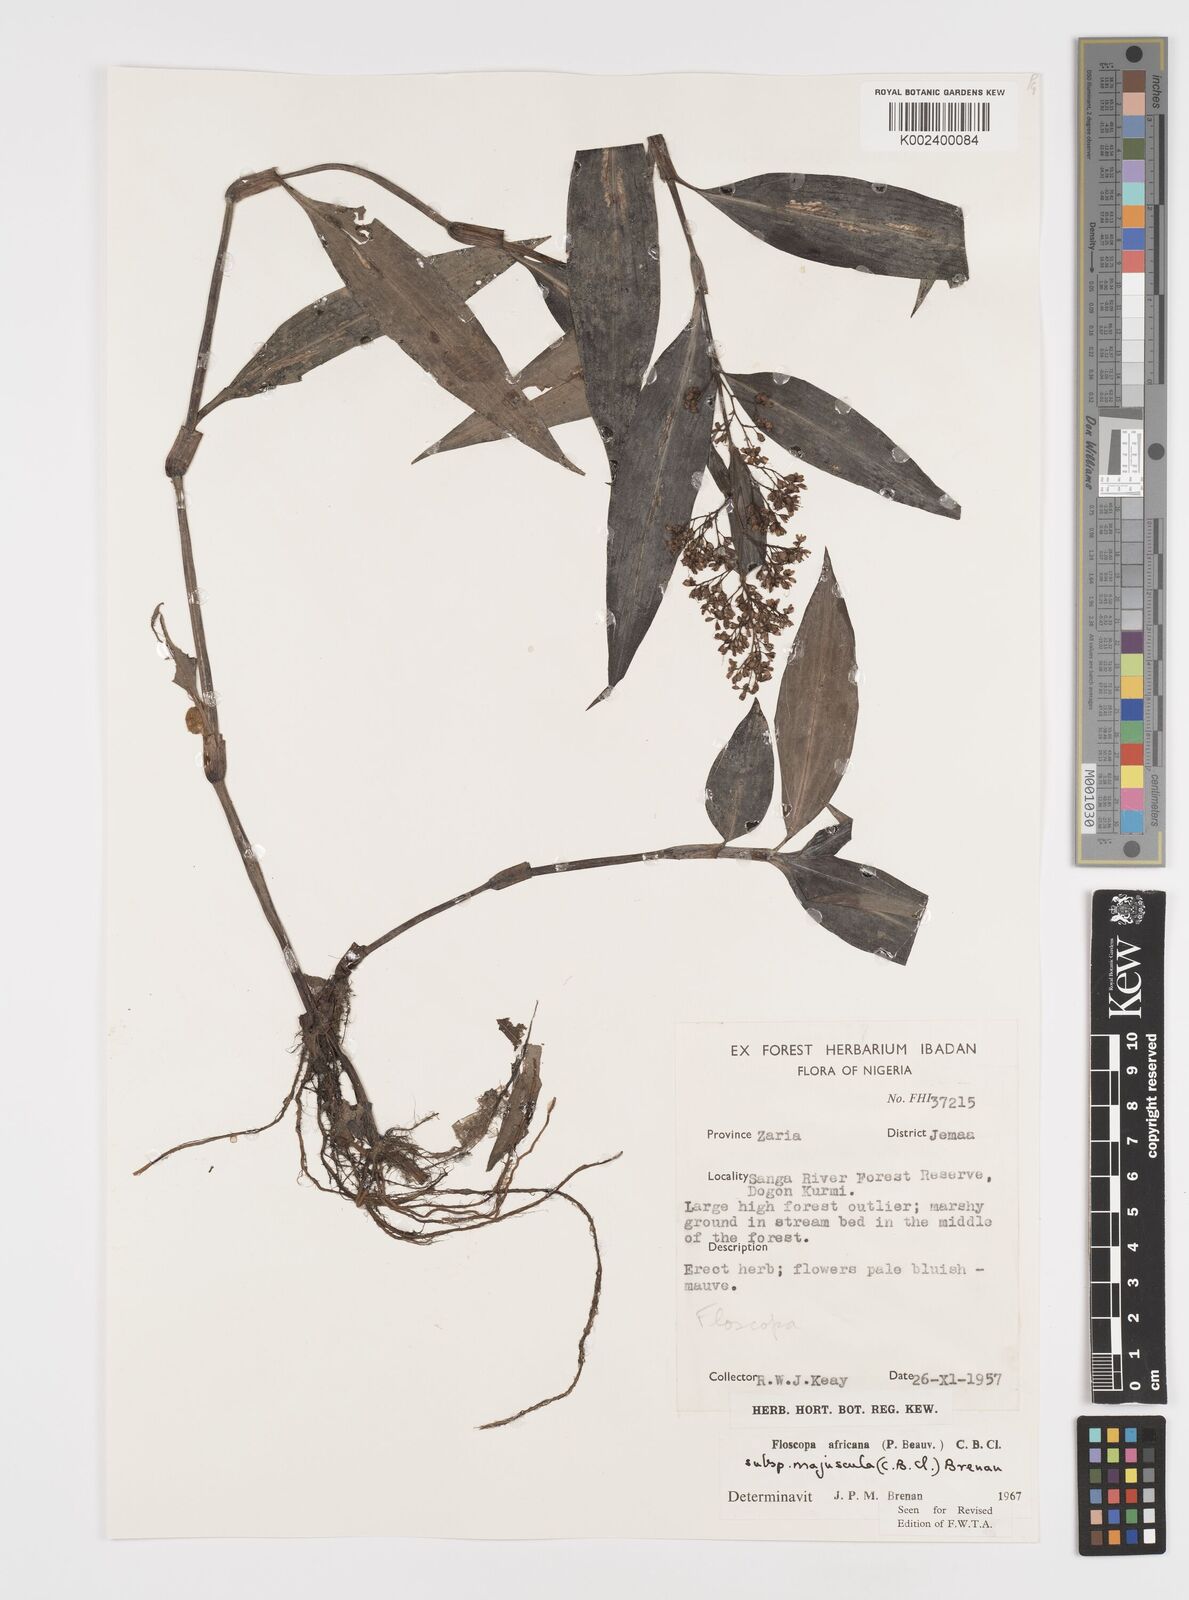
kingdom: Plantae
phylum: Tracheophyta
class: Liliopsida
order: Commelinales
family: Commelinaceae
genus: Floscopa
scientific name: Floscopa africana
